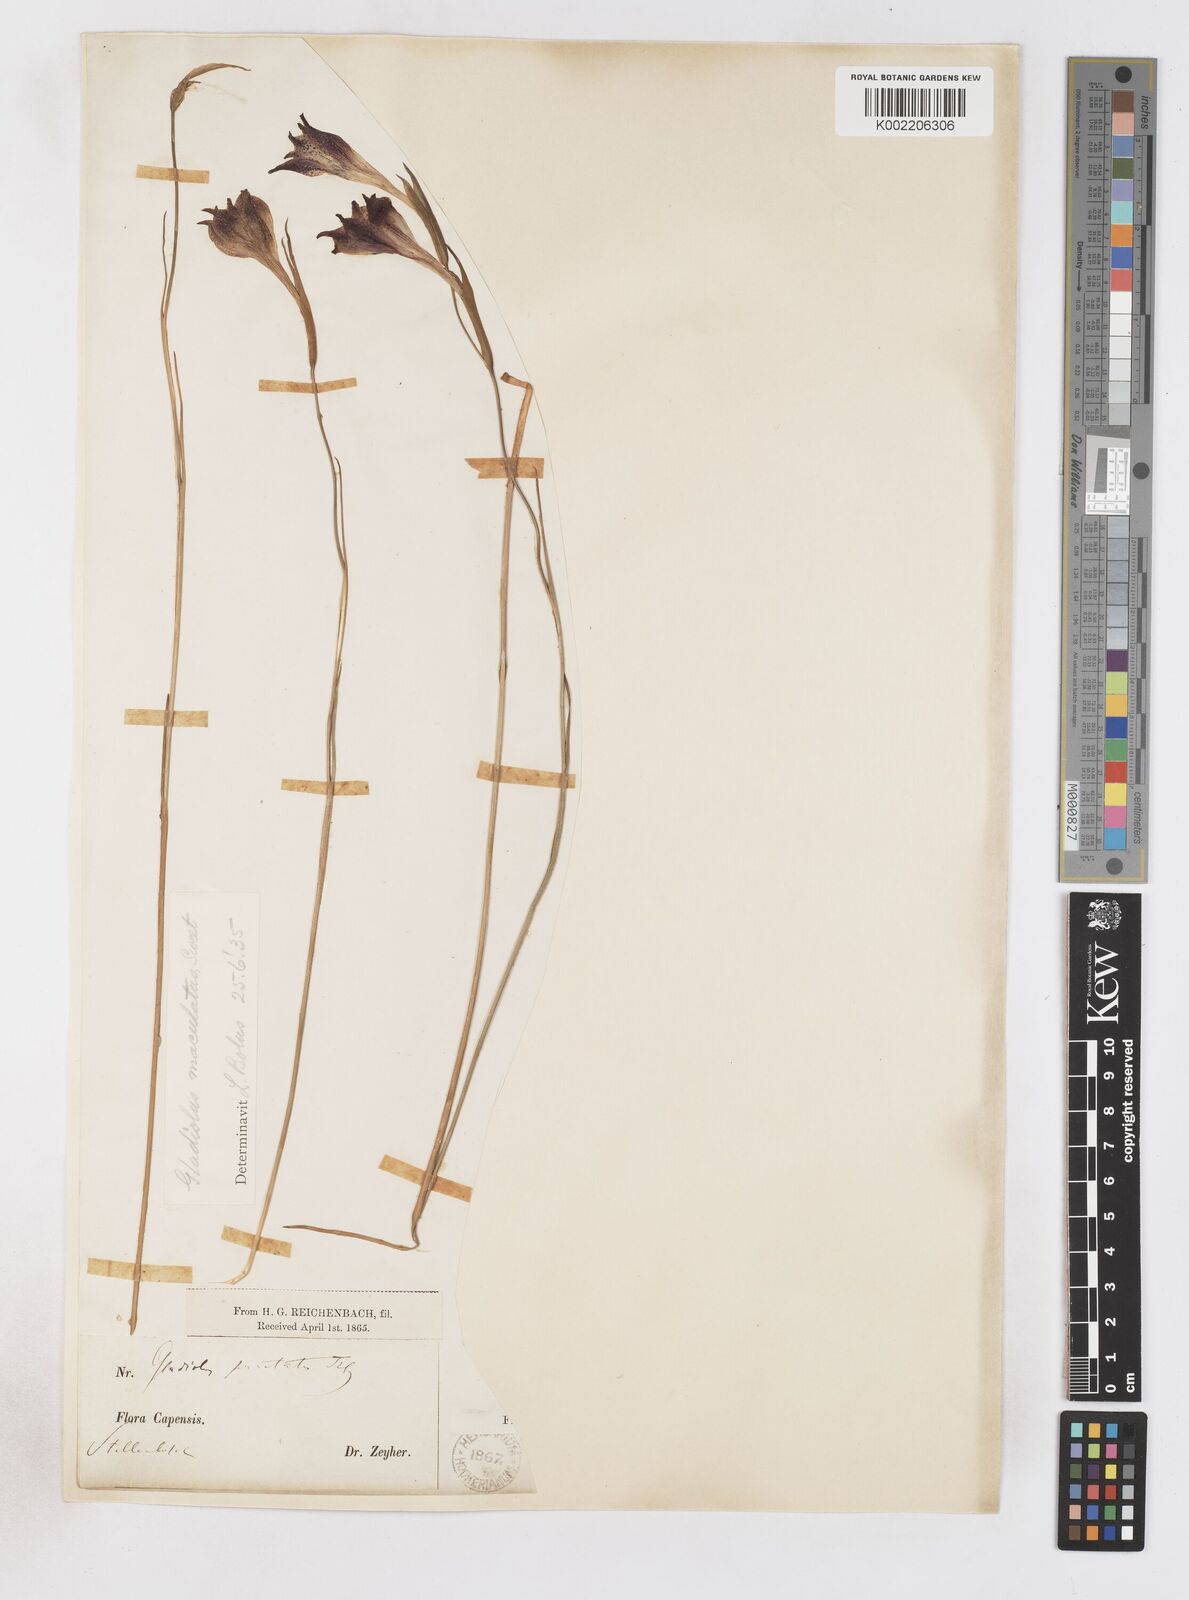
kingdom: Plantae
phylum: Tracheophyta
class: Liliopsida
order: Asparagales
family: Iridaceae
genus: Gladiolus
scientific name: Gladiolus maculatus
